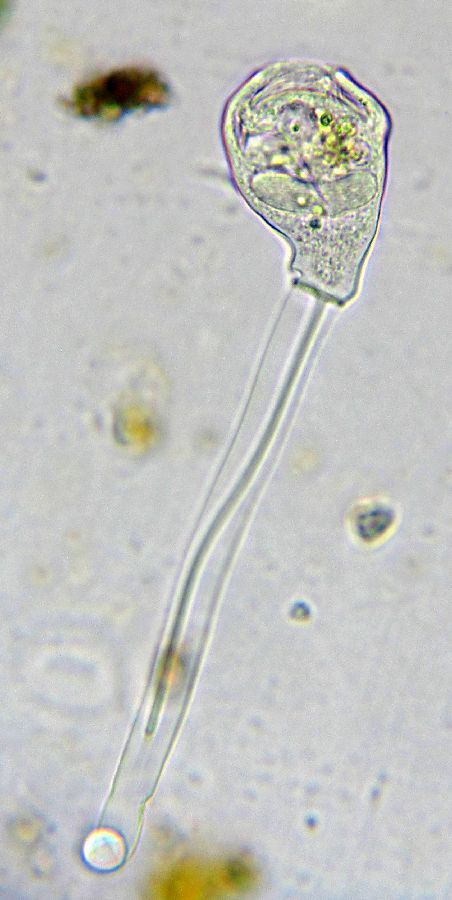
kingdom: Chromista
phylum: Ciliophora
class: Oligohymenophorea
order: Peritrichida
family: Epistylididae
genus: Epistylis
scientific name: Epistylis plicatilis
